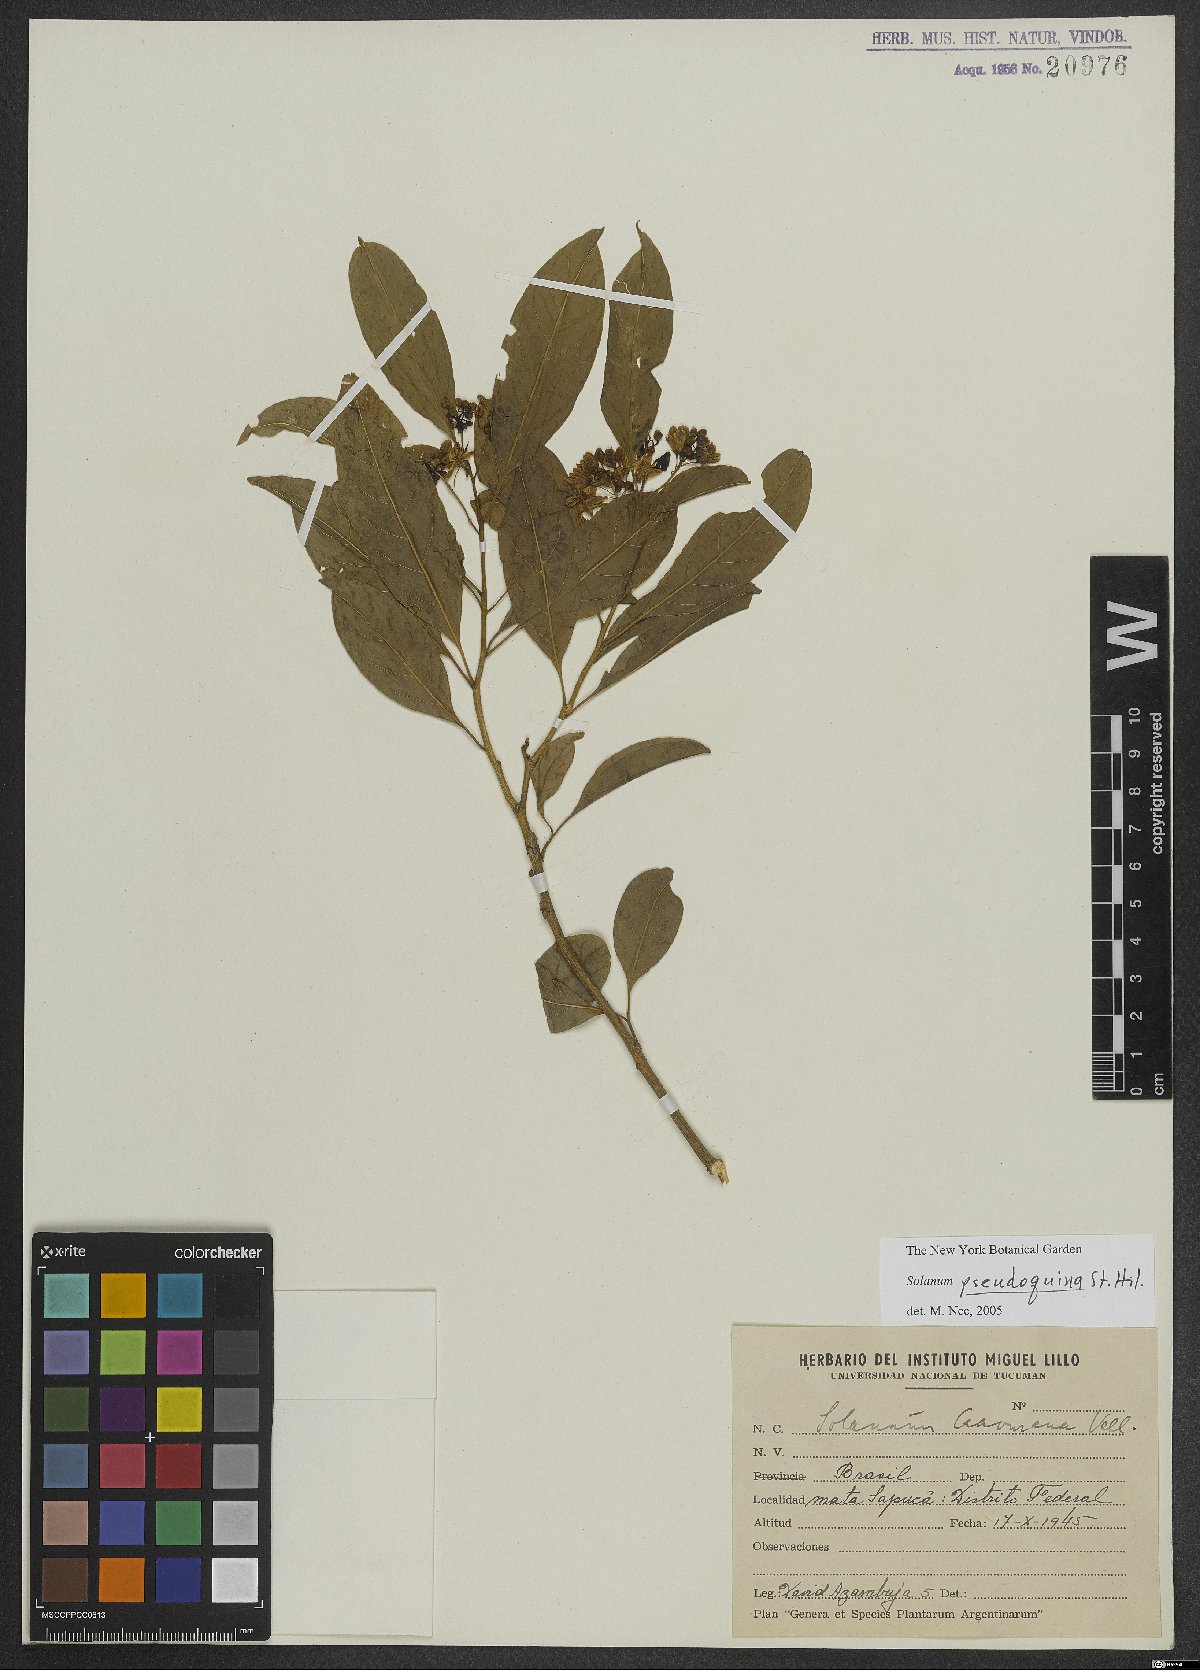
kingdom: Plantae
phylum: Tracheophyta
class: Magnoliopsida
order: Solanales
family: Solanaceae
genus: Solanum
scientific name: Solanum pseudoquina
